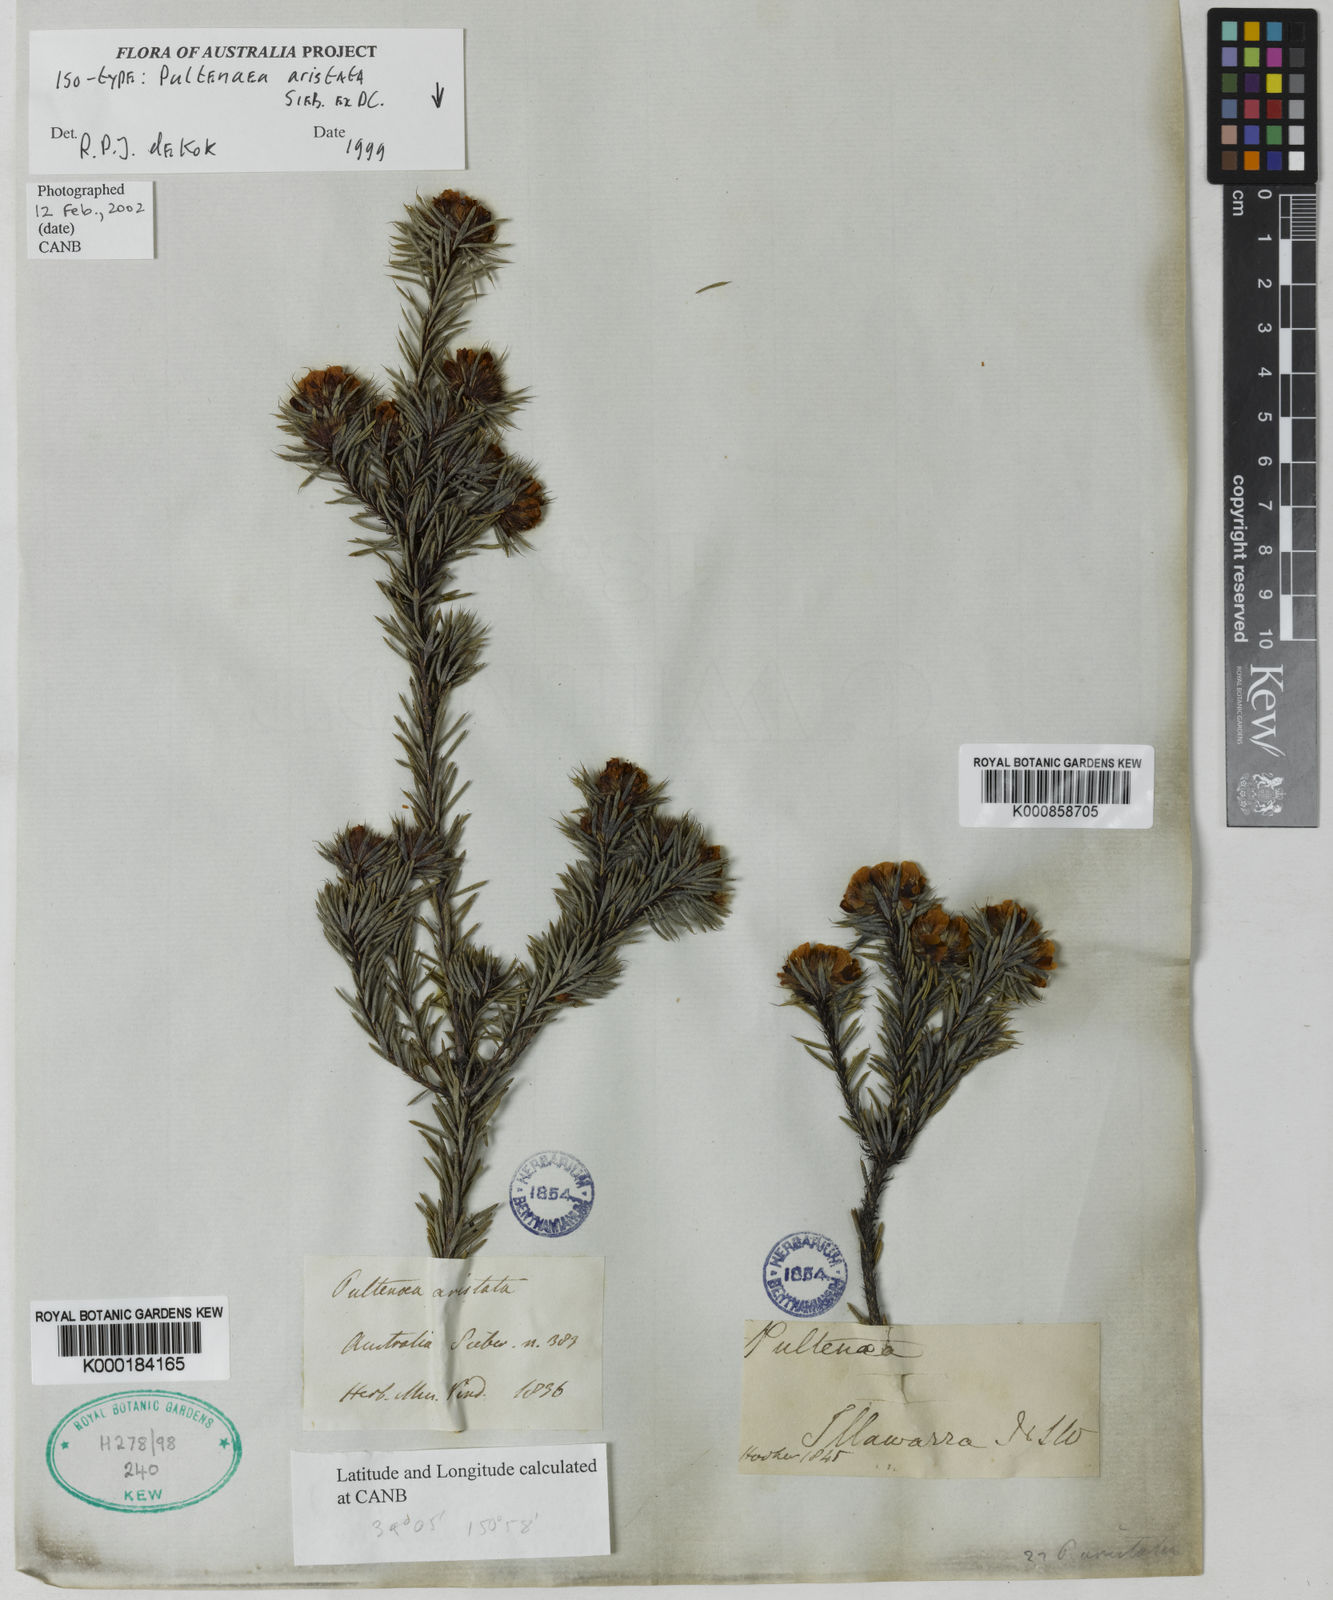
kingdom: Plantae
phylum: Tracheophyta
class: Magnoliopsida
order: Fabales
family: Fabaceae
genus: Pultenaea
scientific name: Pultenaea aristata
